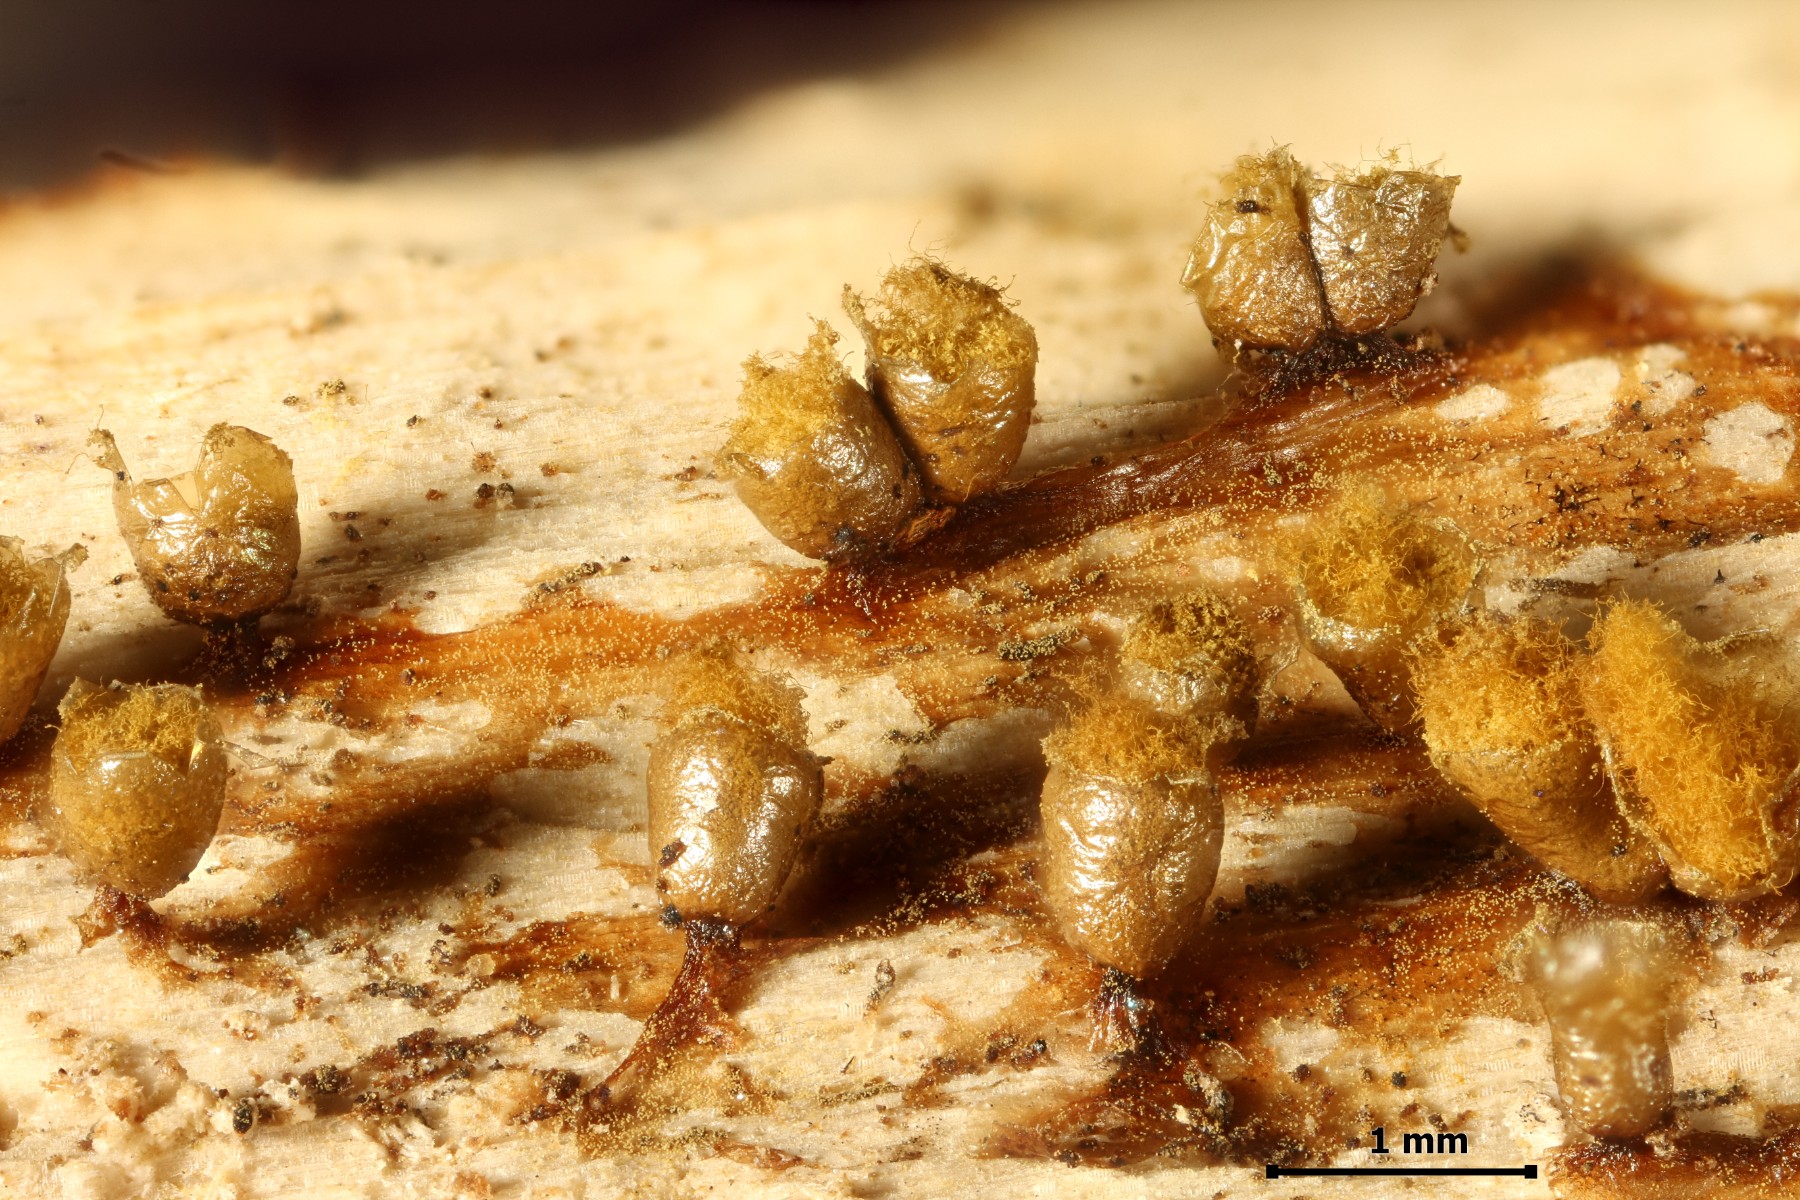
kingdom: Protozoa
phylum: Mycetozoa
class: Myxomycetes
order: Trichiales
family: Trichiaceae
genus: Trichia
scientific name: Trichia varia
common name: foranderlig hårbold
